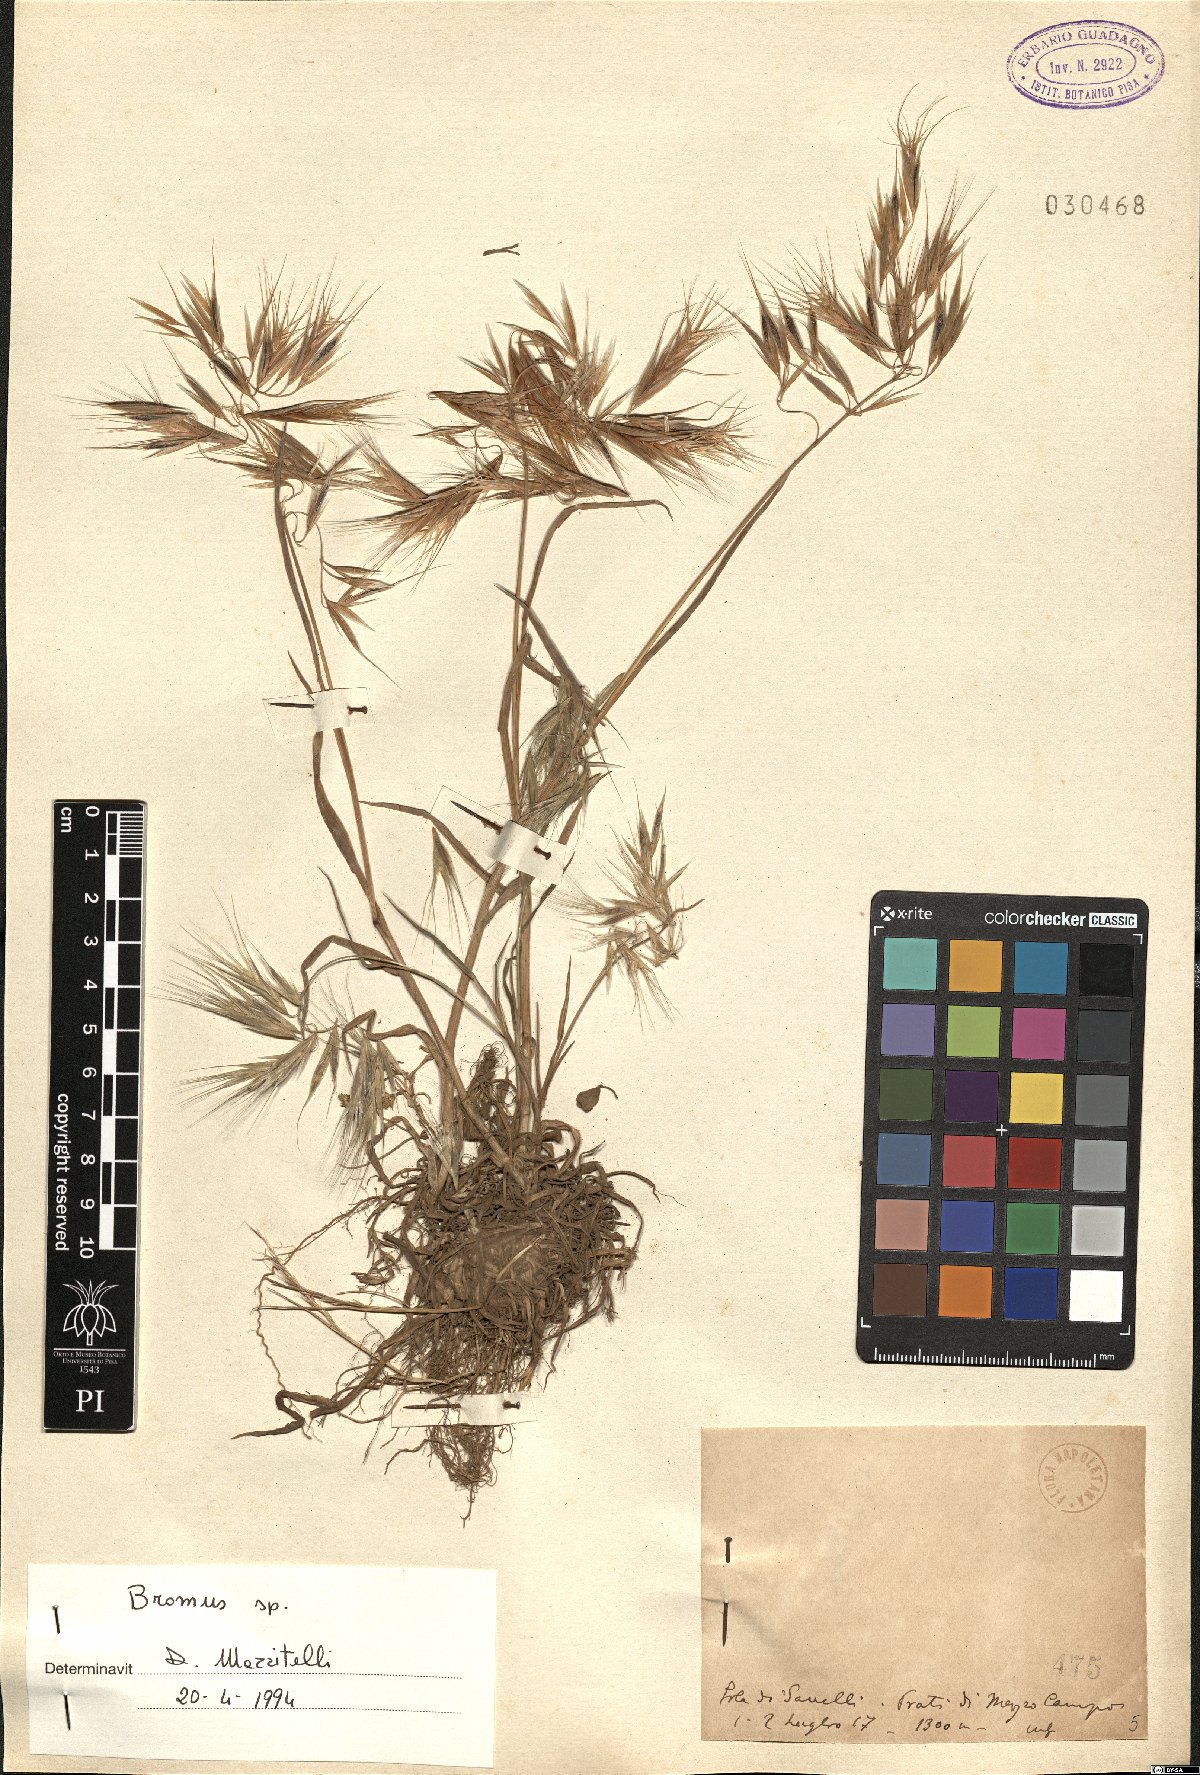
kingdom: Plantae
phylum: Tracheophyta
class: Liliopsida
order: Poales
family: Poaceae
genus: Bromus
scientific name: Bromus
